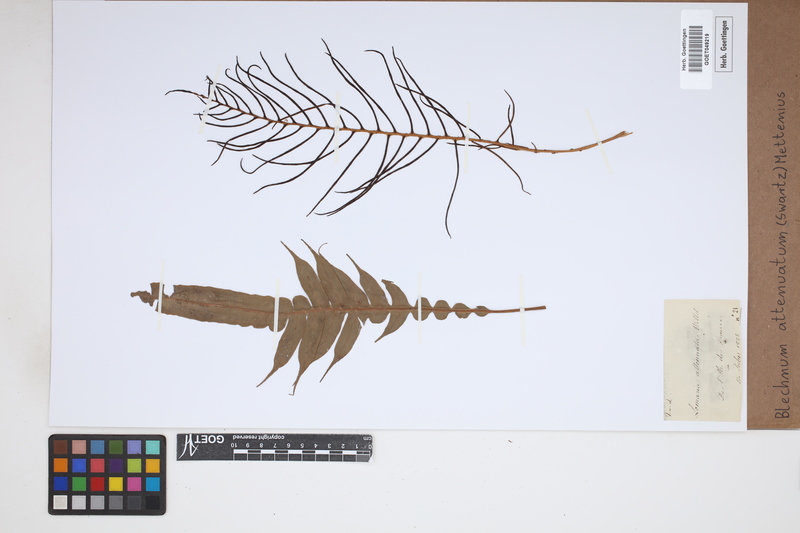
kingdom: Plantae
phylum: Tracheophyta
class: Polypodiopsida
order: Polypodiales
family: Blechnaceae
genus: Lomaridium
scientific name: Lomaridium attenuatum
